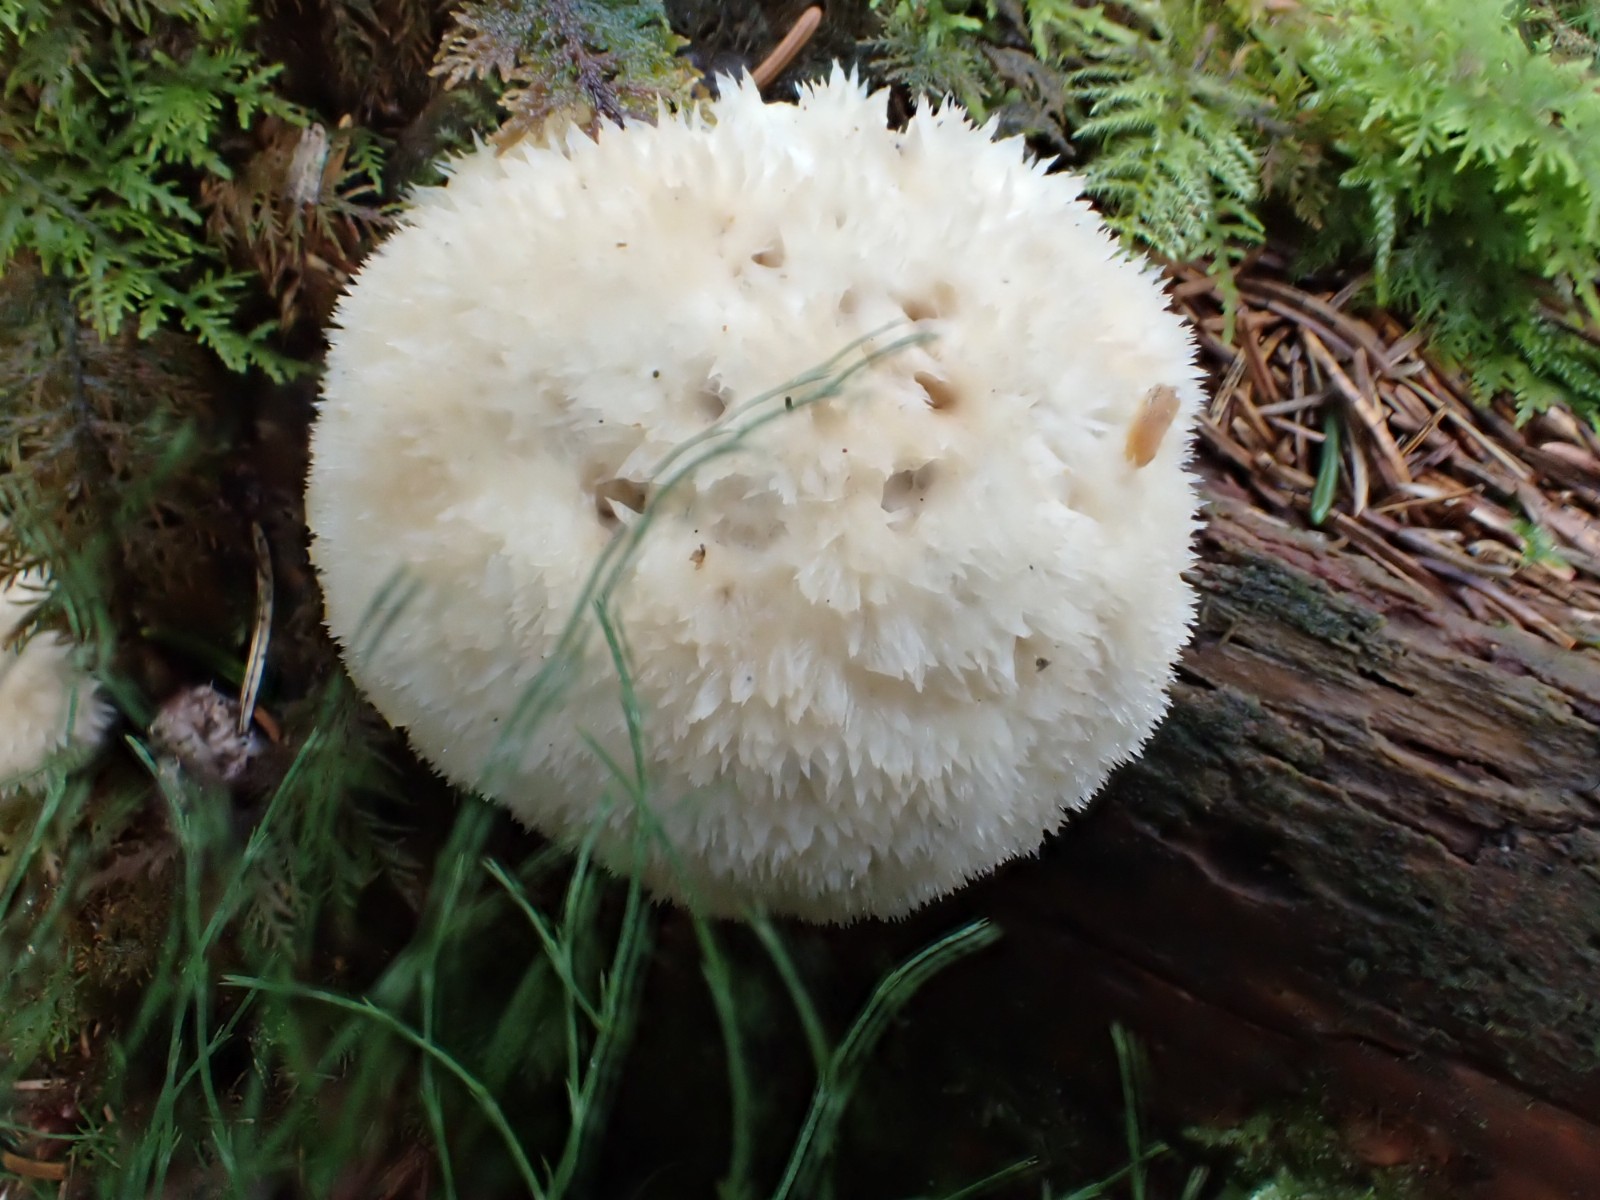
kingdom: Fungi
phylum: Basidiomycota
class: Agaricomycetes
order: Polyporales
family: Dacryobolaceae
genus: Postia
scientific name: Postia ptychogaster
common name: støvende kødporesvamp
